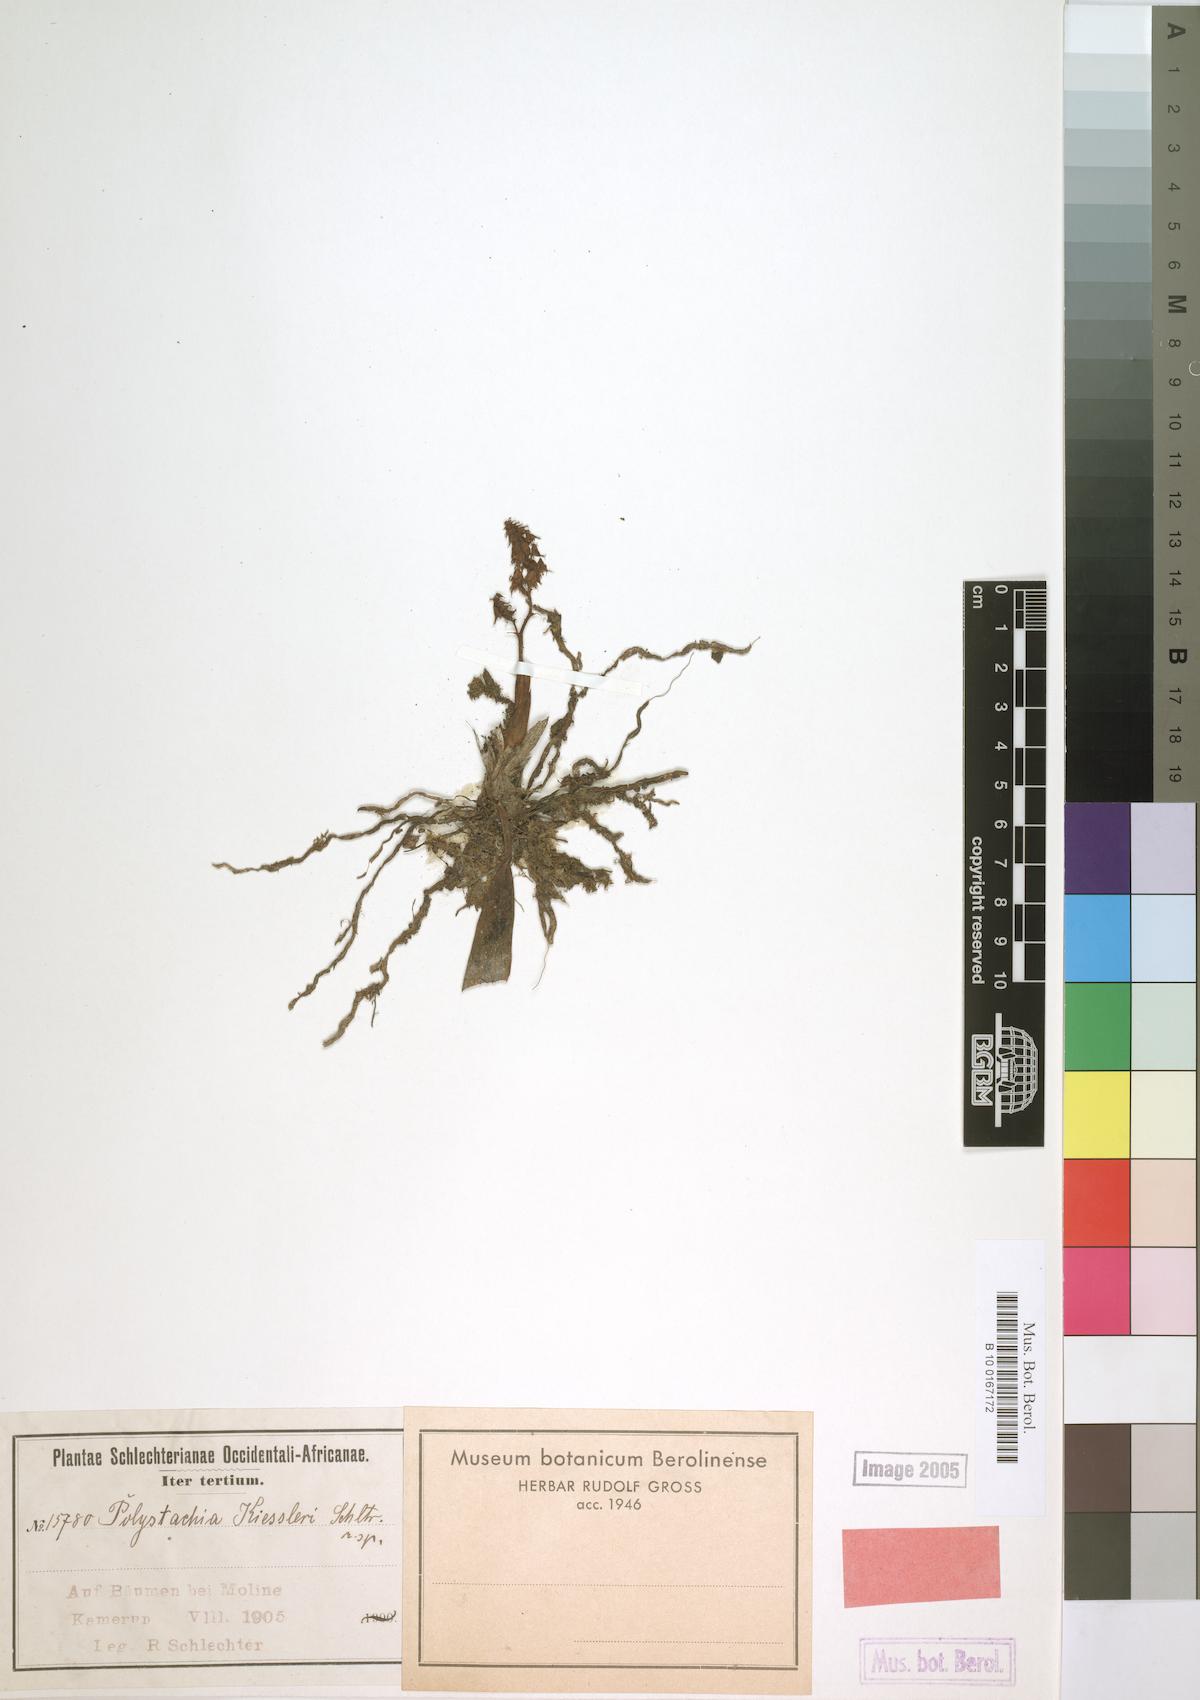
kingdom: Plantae
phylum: Tracheophyta
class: Liliopsida
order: Asparagales
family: Orchidaceae
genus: Polystachya
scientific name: Polystachya coriscensis
